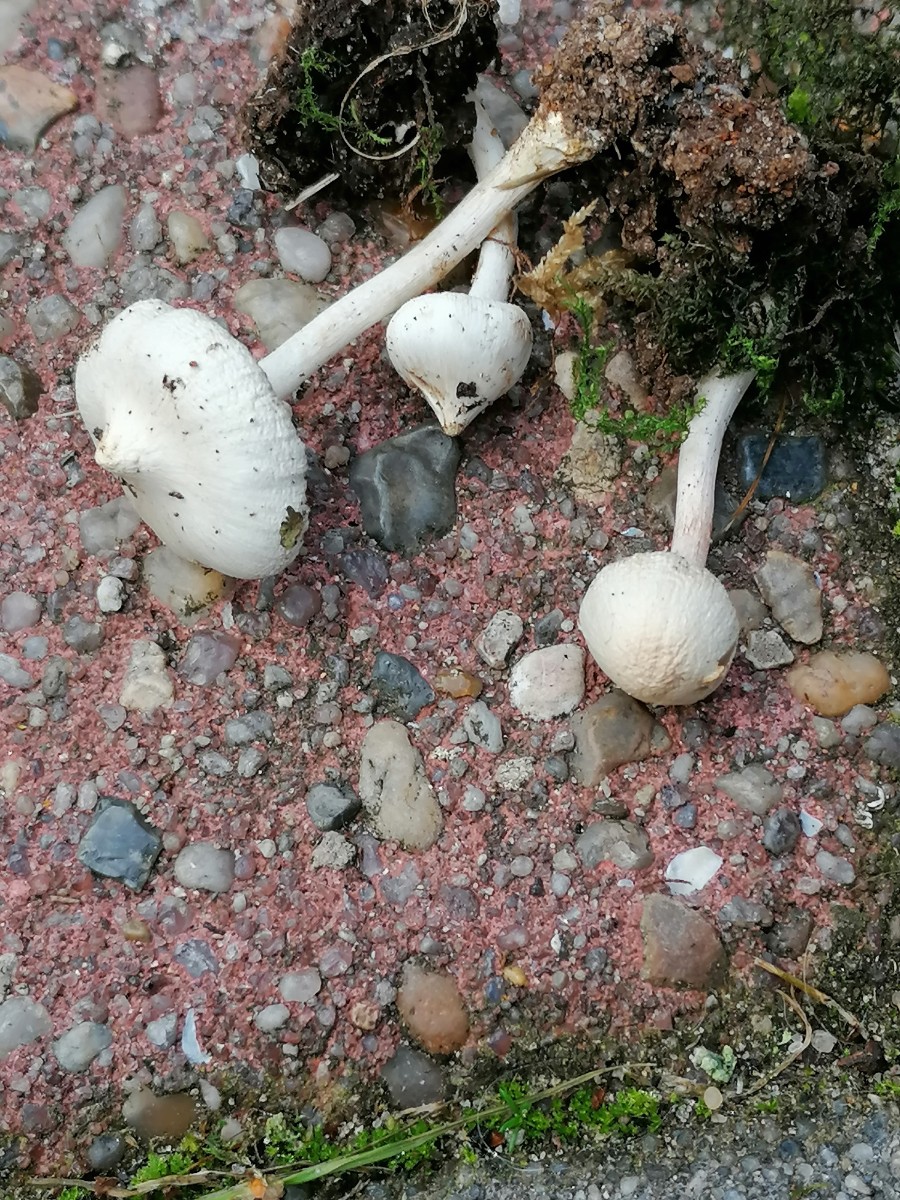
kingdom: Fungi
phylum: Basidiomycota
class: Agaricomycetes
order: Agaricales
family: Inocybaceae
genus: Inocybe
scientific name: Inocybe
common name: almindelig trævlhat
